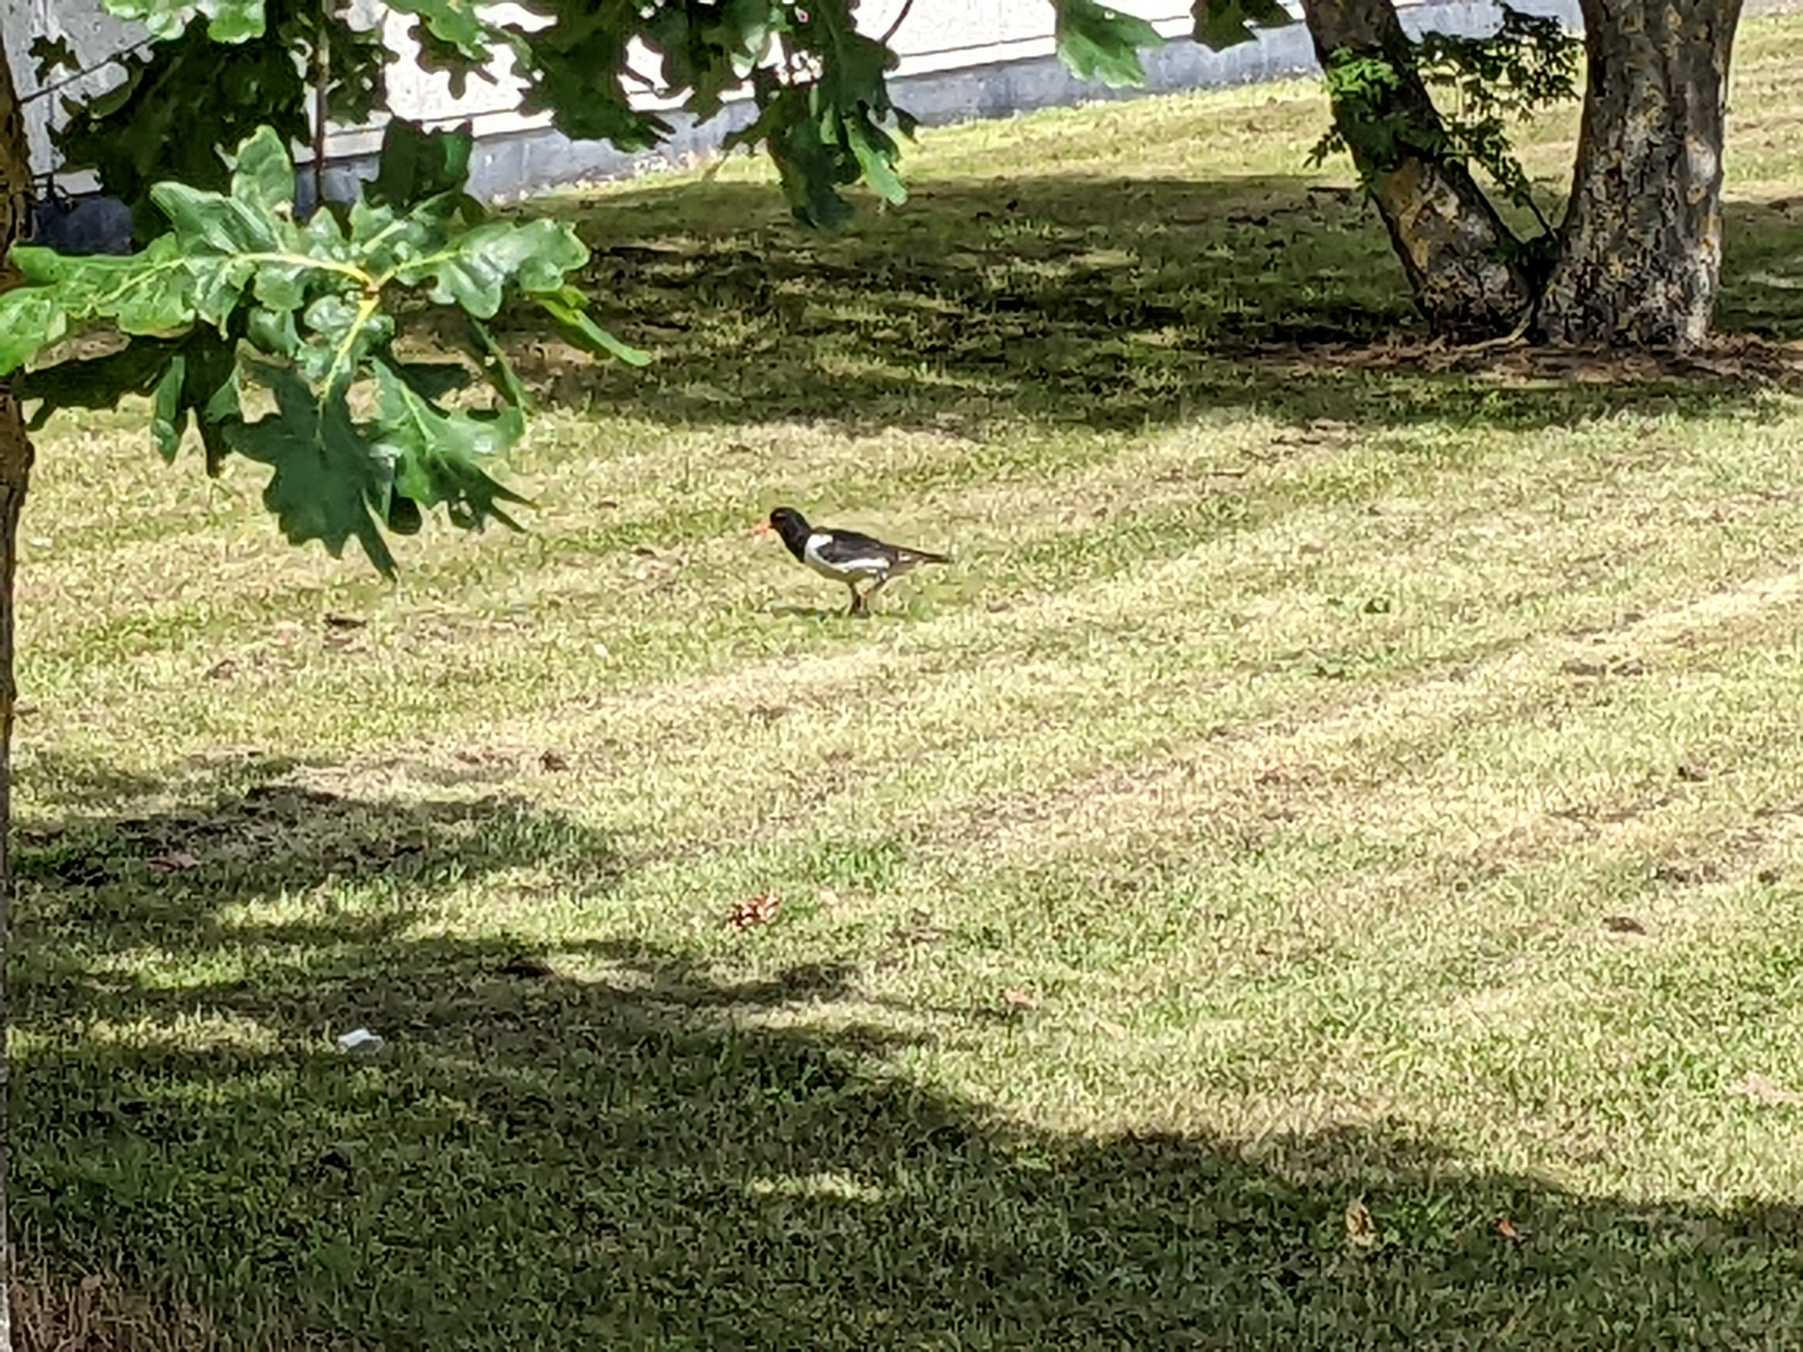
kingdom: Animalia
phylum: Chordata
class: Aves
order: Charadriiformes
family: Haematopodidae
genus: Haematopus
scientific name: Haematopus ostralegus
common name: Strandskade
